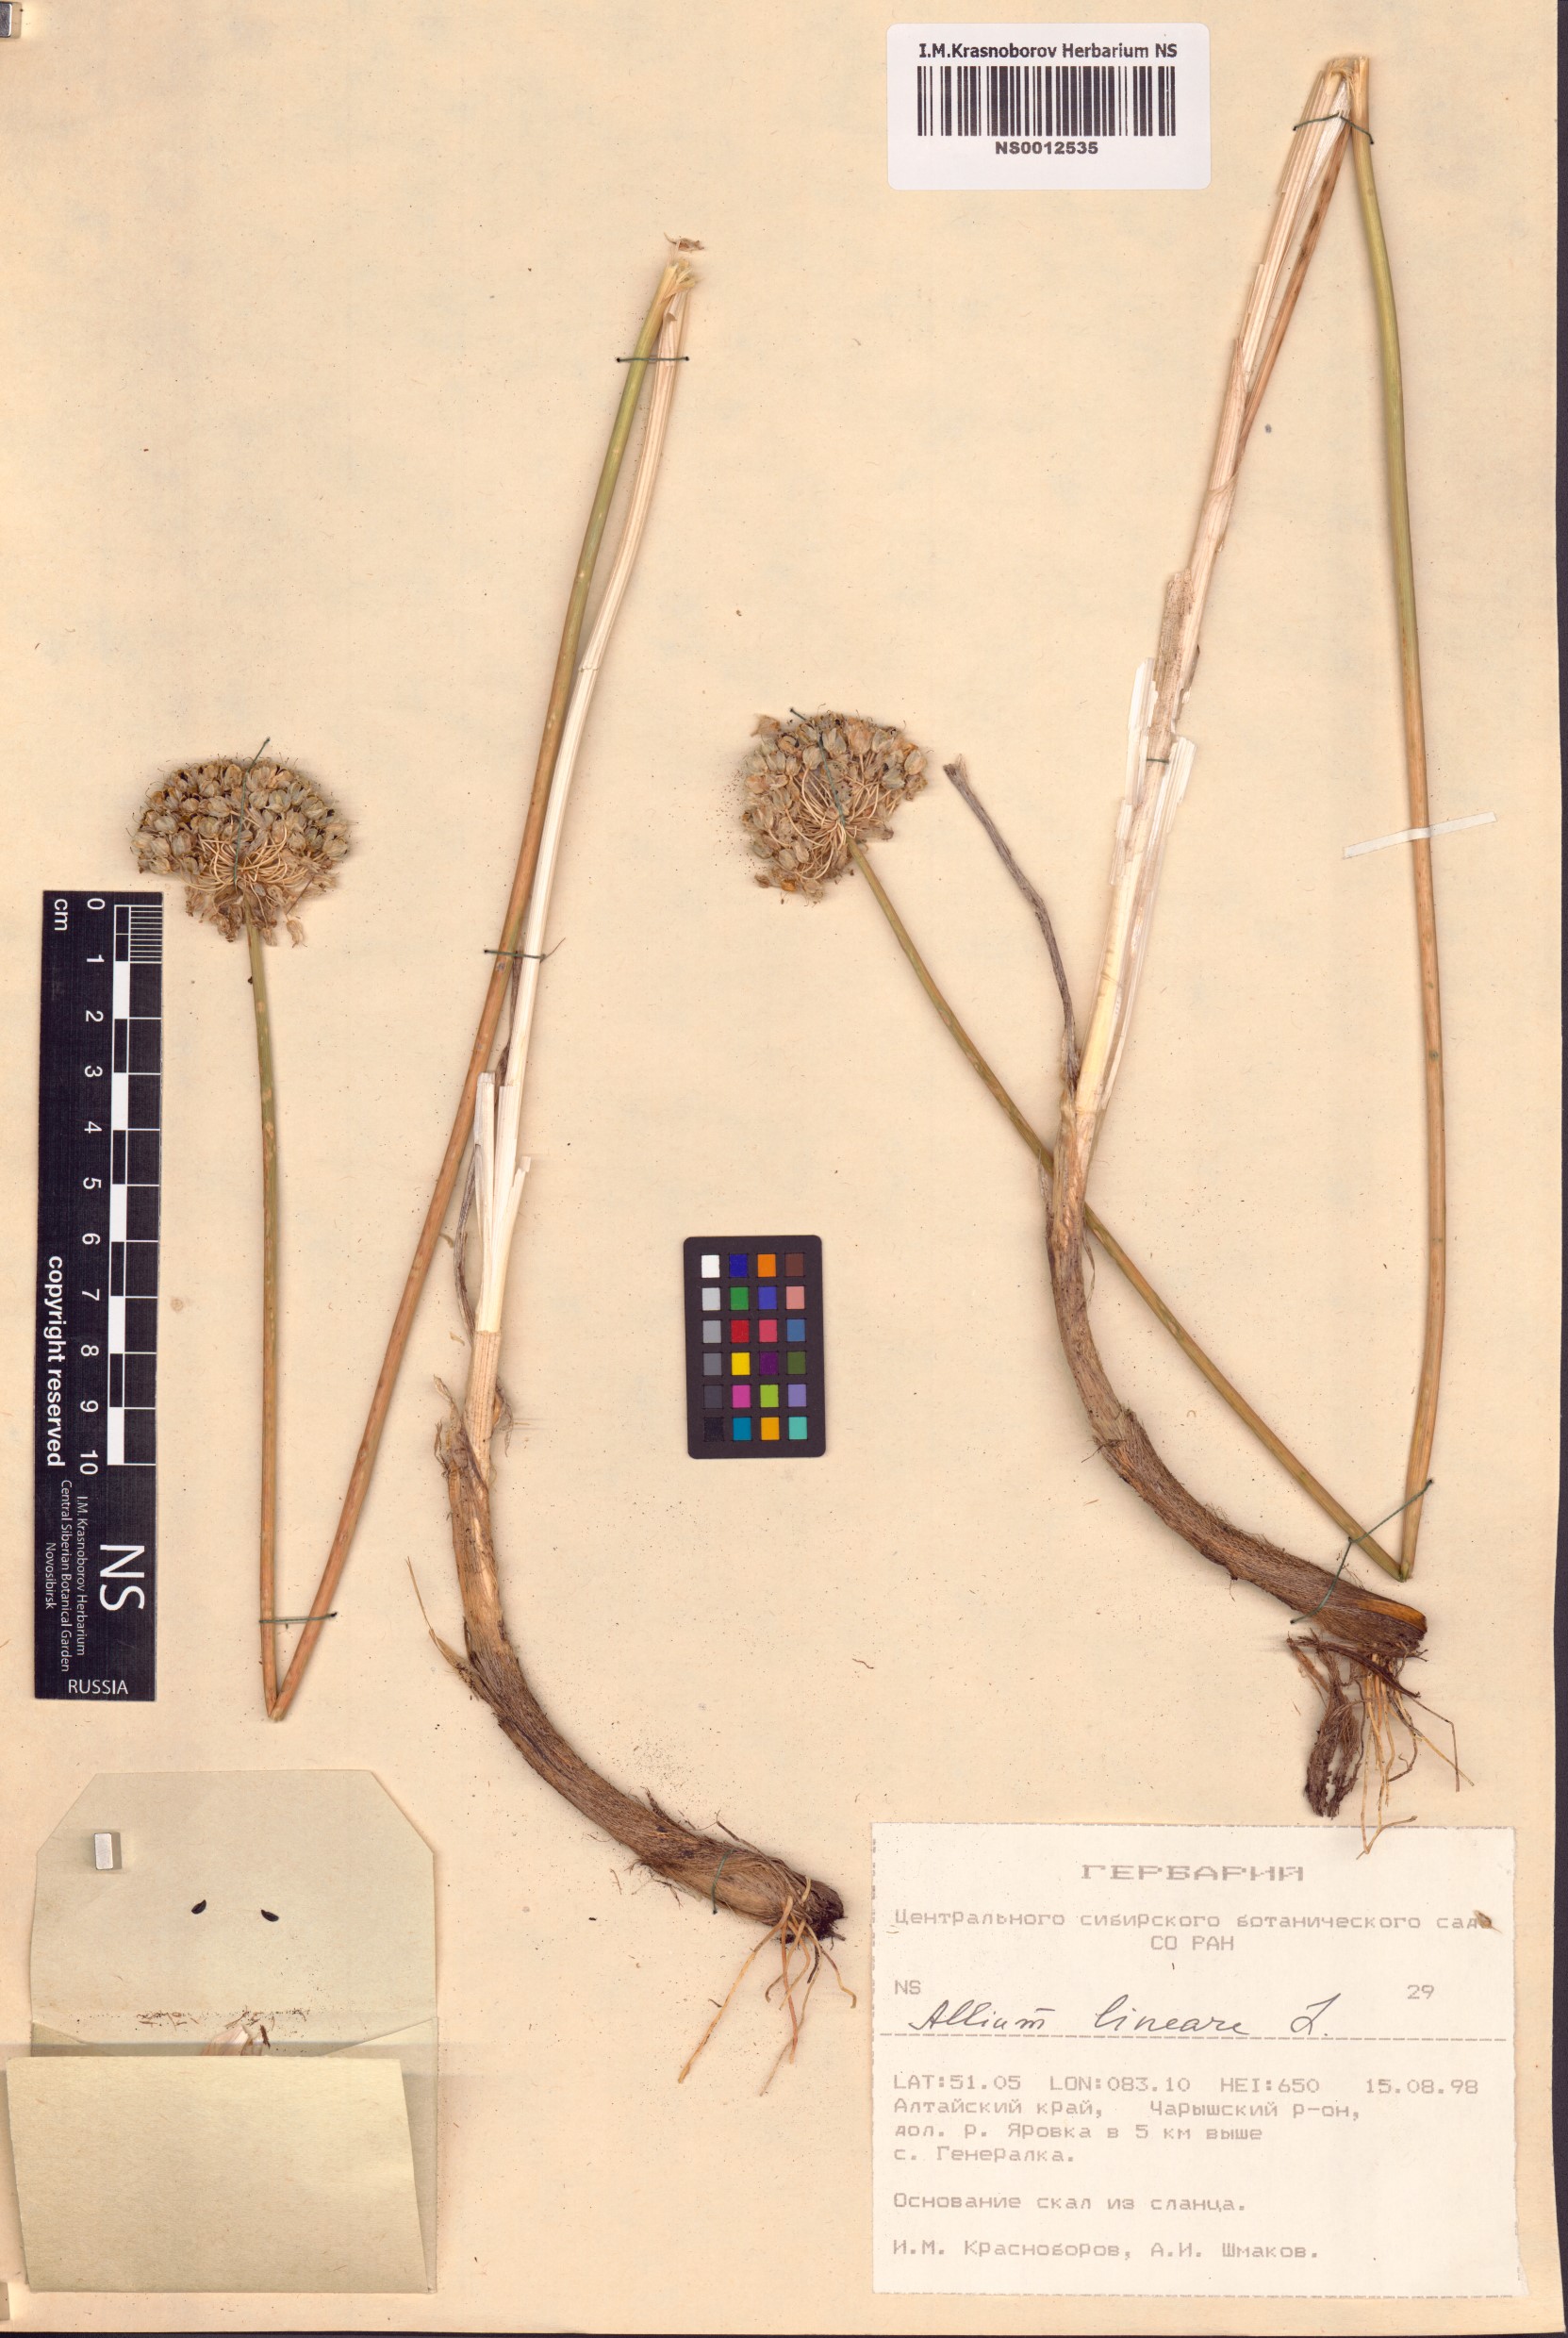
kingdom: Plantae
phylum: Tracheophyta
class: Liliopsida
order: Asparagales
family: Amaryllidaceae
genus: Allium
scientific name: Allium lineare
